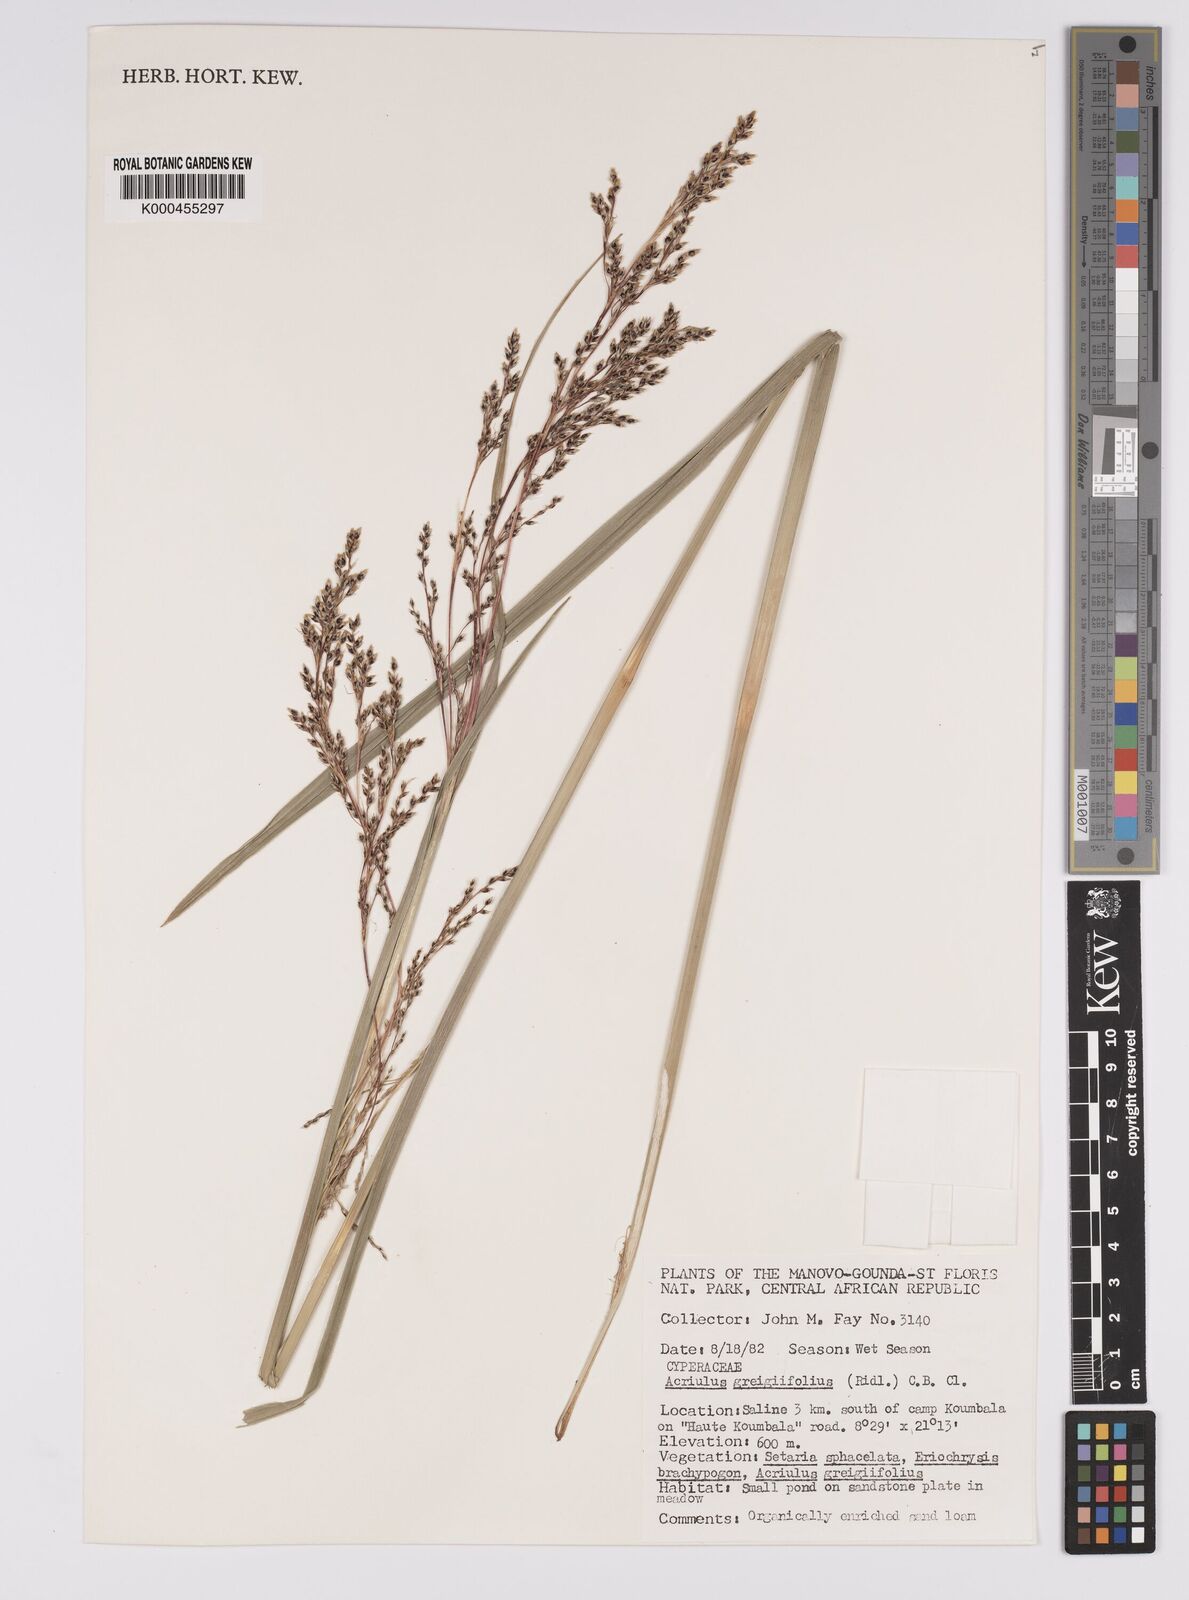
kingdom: Plantae
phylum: Tracheophyta
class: Liliopsida
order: Poales
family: Cyperaceae
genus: Scleria
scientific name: Scleria greigiifolia
